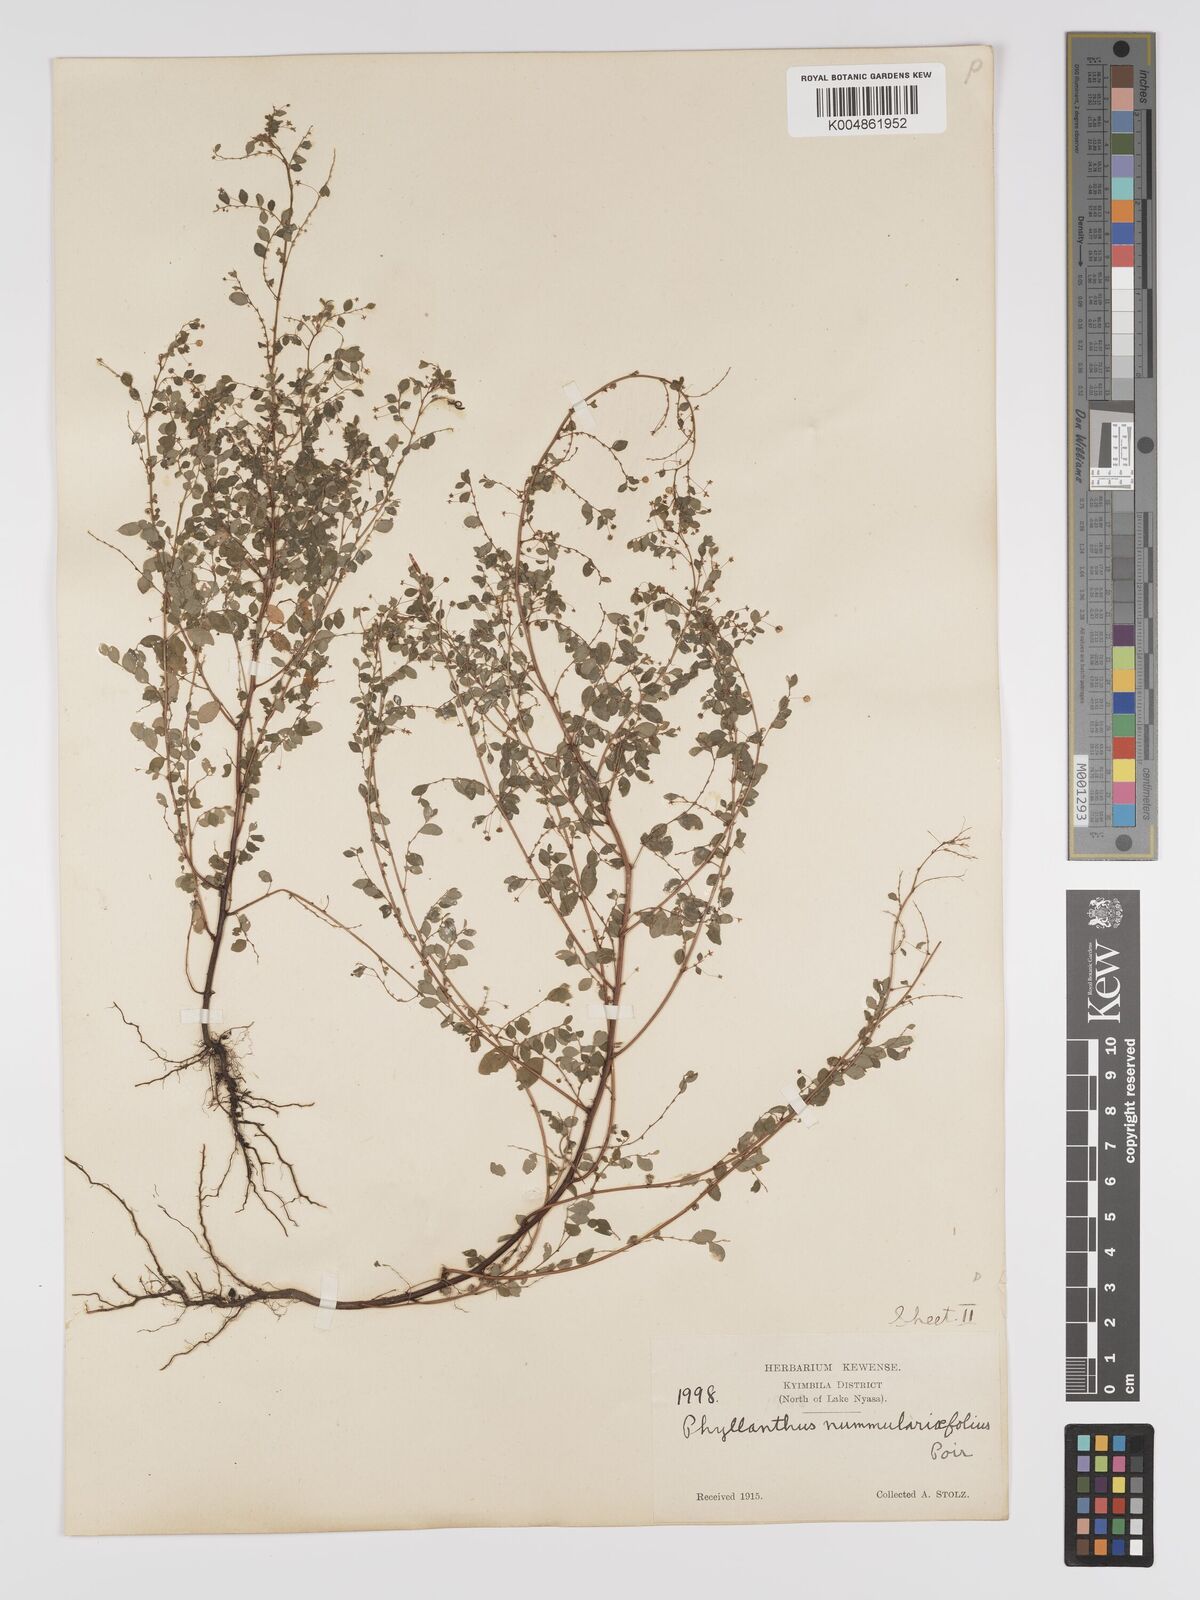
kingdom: Plantae
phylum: Tracheophyta
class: Magnoliopsida
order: Malpighiales
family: Phyllanthaceae
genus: Phyllanthus
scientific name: Phyllanthus nummulariifolius
